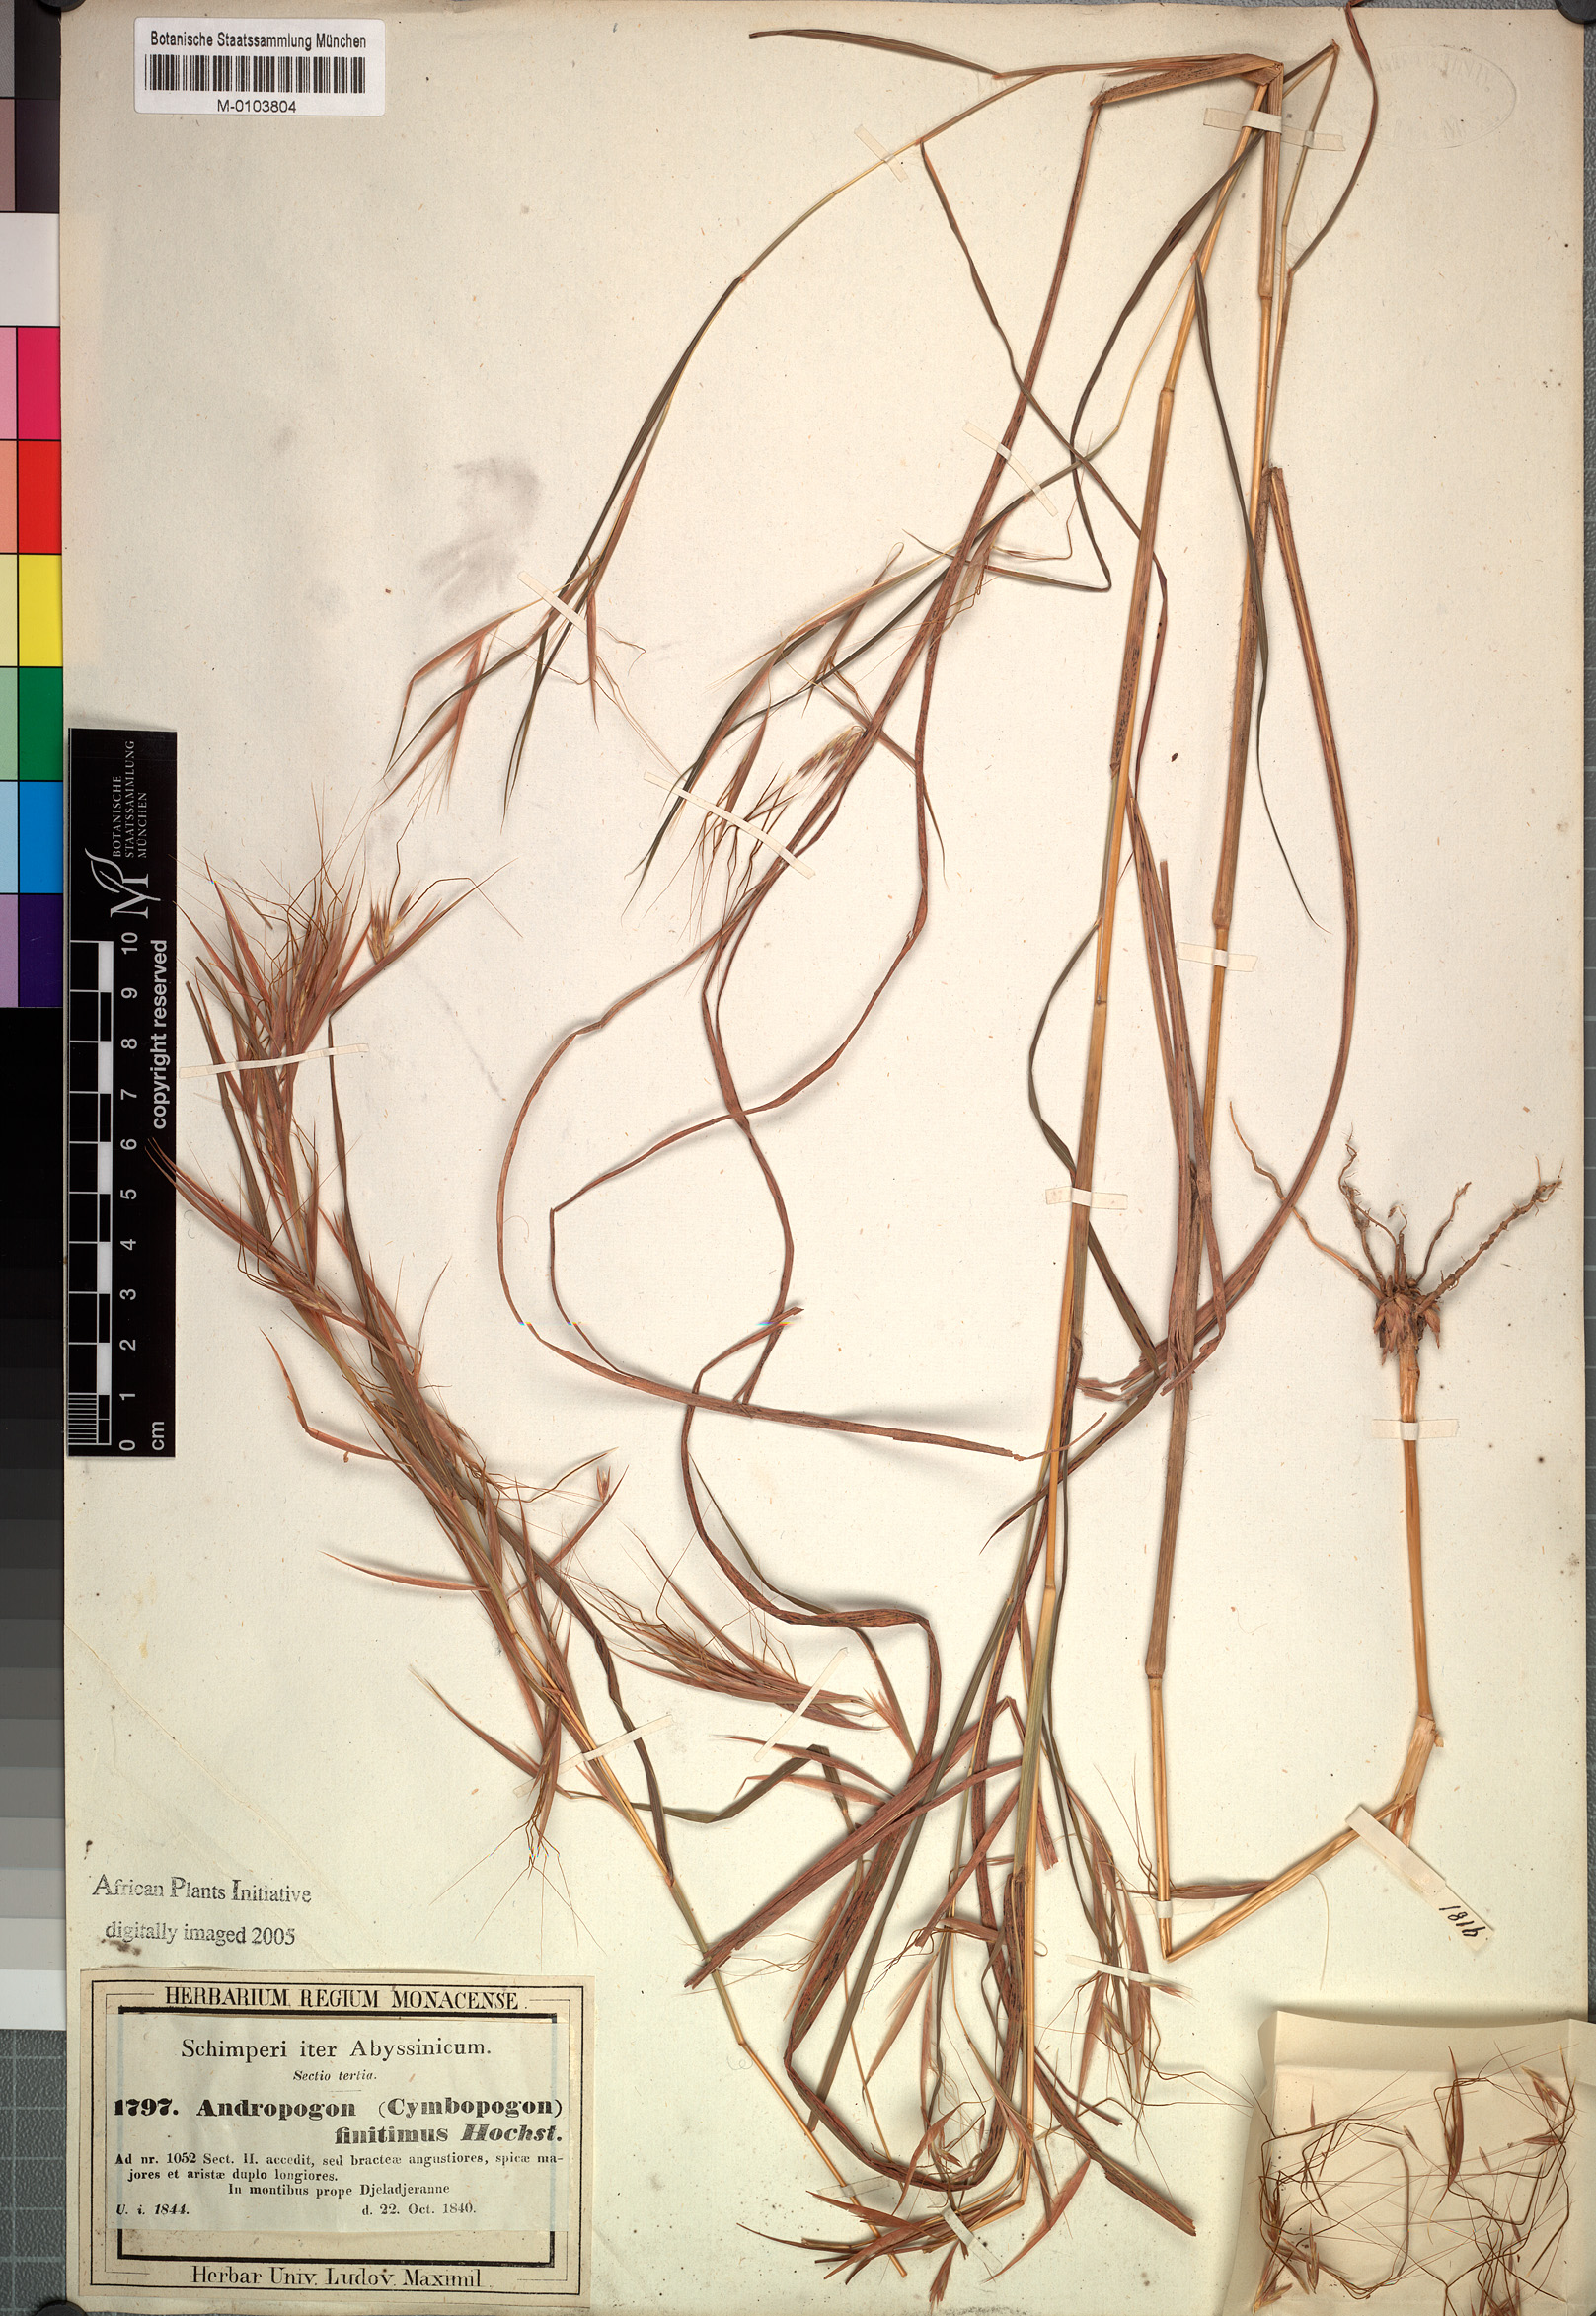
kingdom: Plantae
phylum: Tracheophyta
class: Liliopsida
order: Poales
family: Poaceae
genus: Hyparrhenia
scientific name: Hyparrhenia finitima
